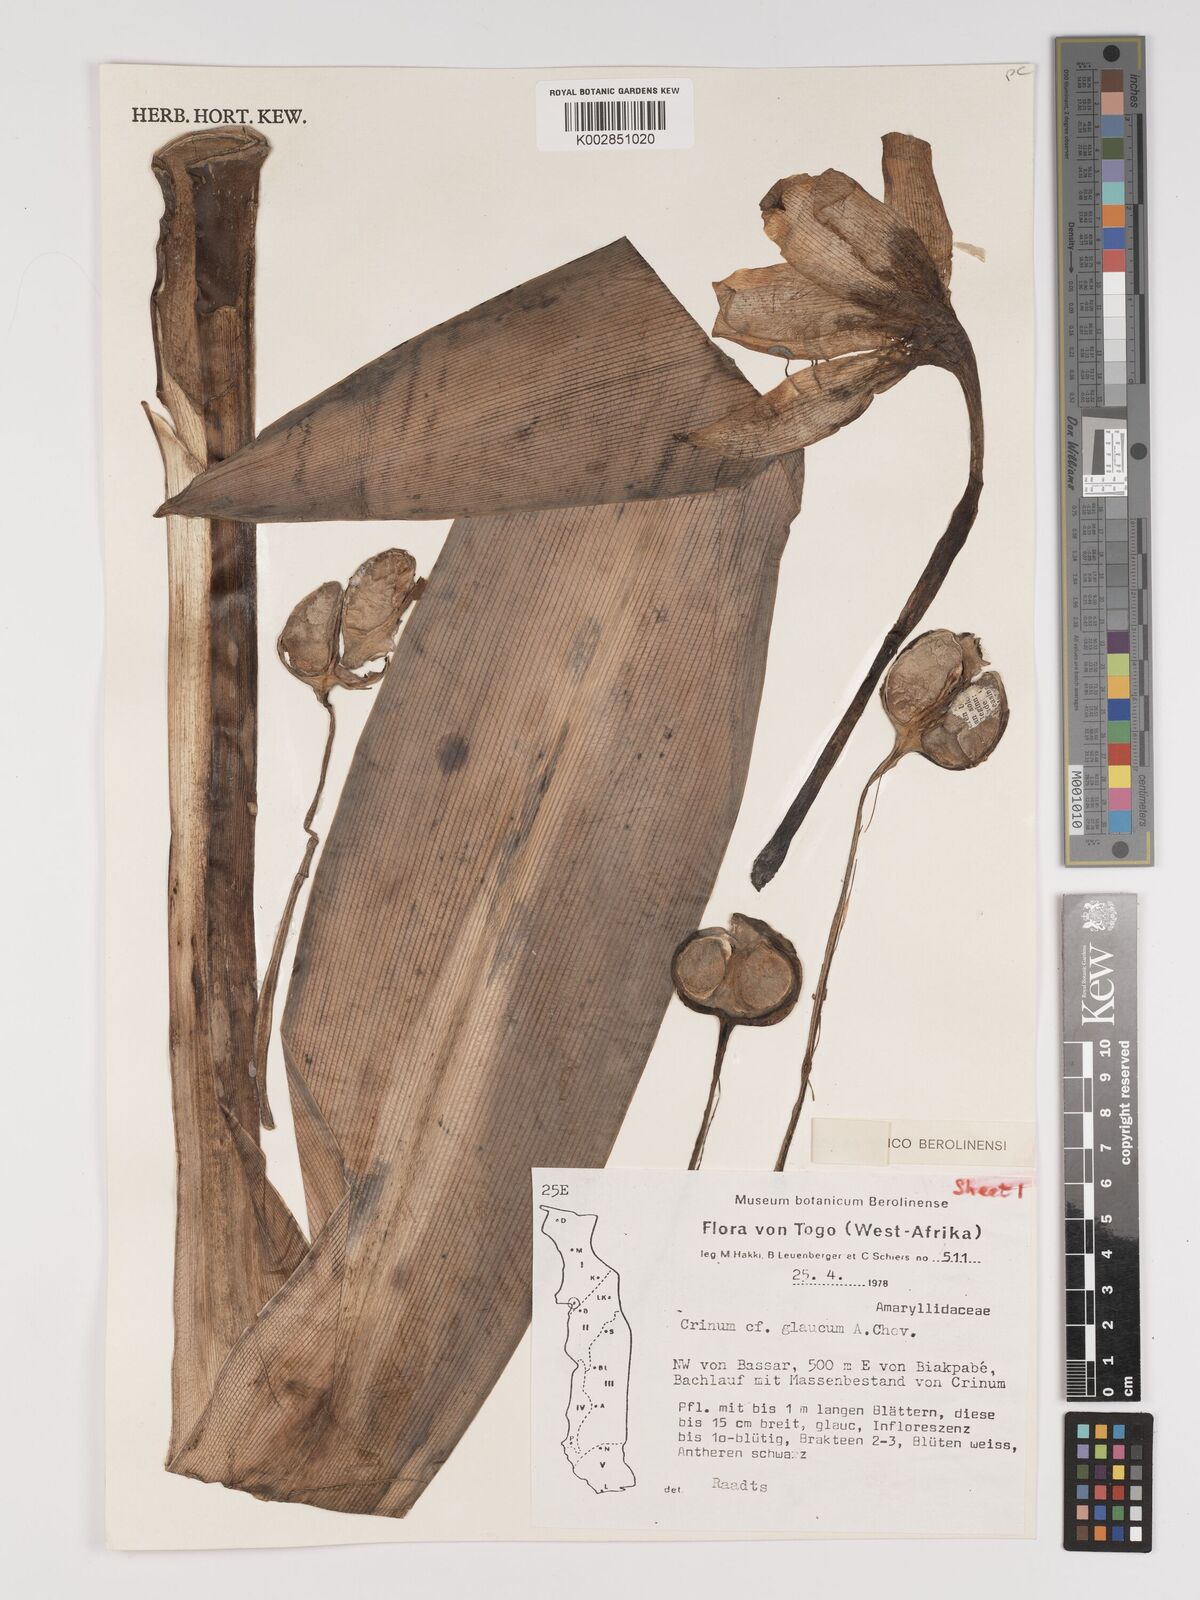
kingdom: Plantae
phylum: Tracheophyta
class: Liliopsida
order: Asparagales
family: Amaryllidaceae
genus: Crinum
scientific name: Crinum glaucum
